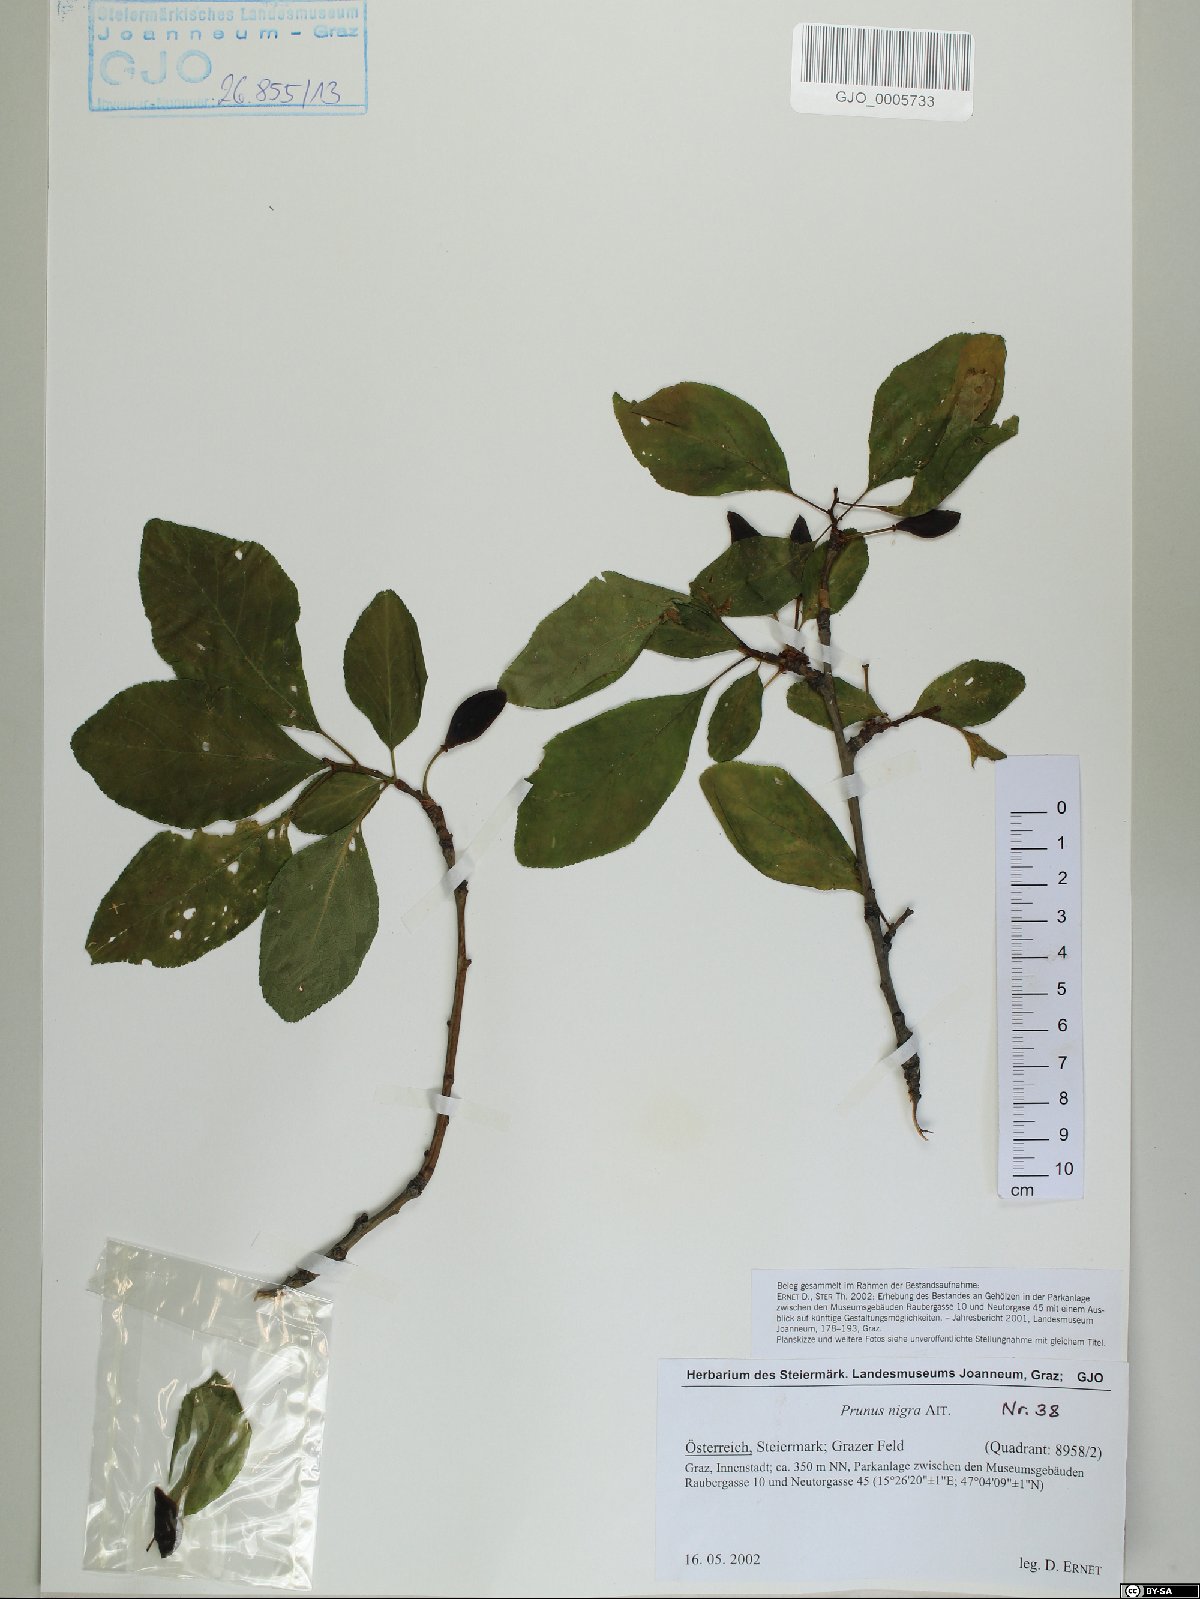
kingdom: Plantae
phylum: Tracheophyta
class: Magnoliopsida
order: Rosales
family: Rosaceae
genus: Prunus
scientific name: Prunus nigra
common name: Black plum
